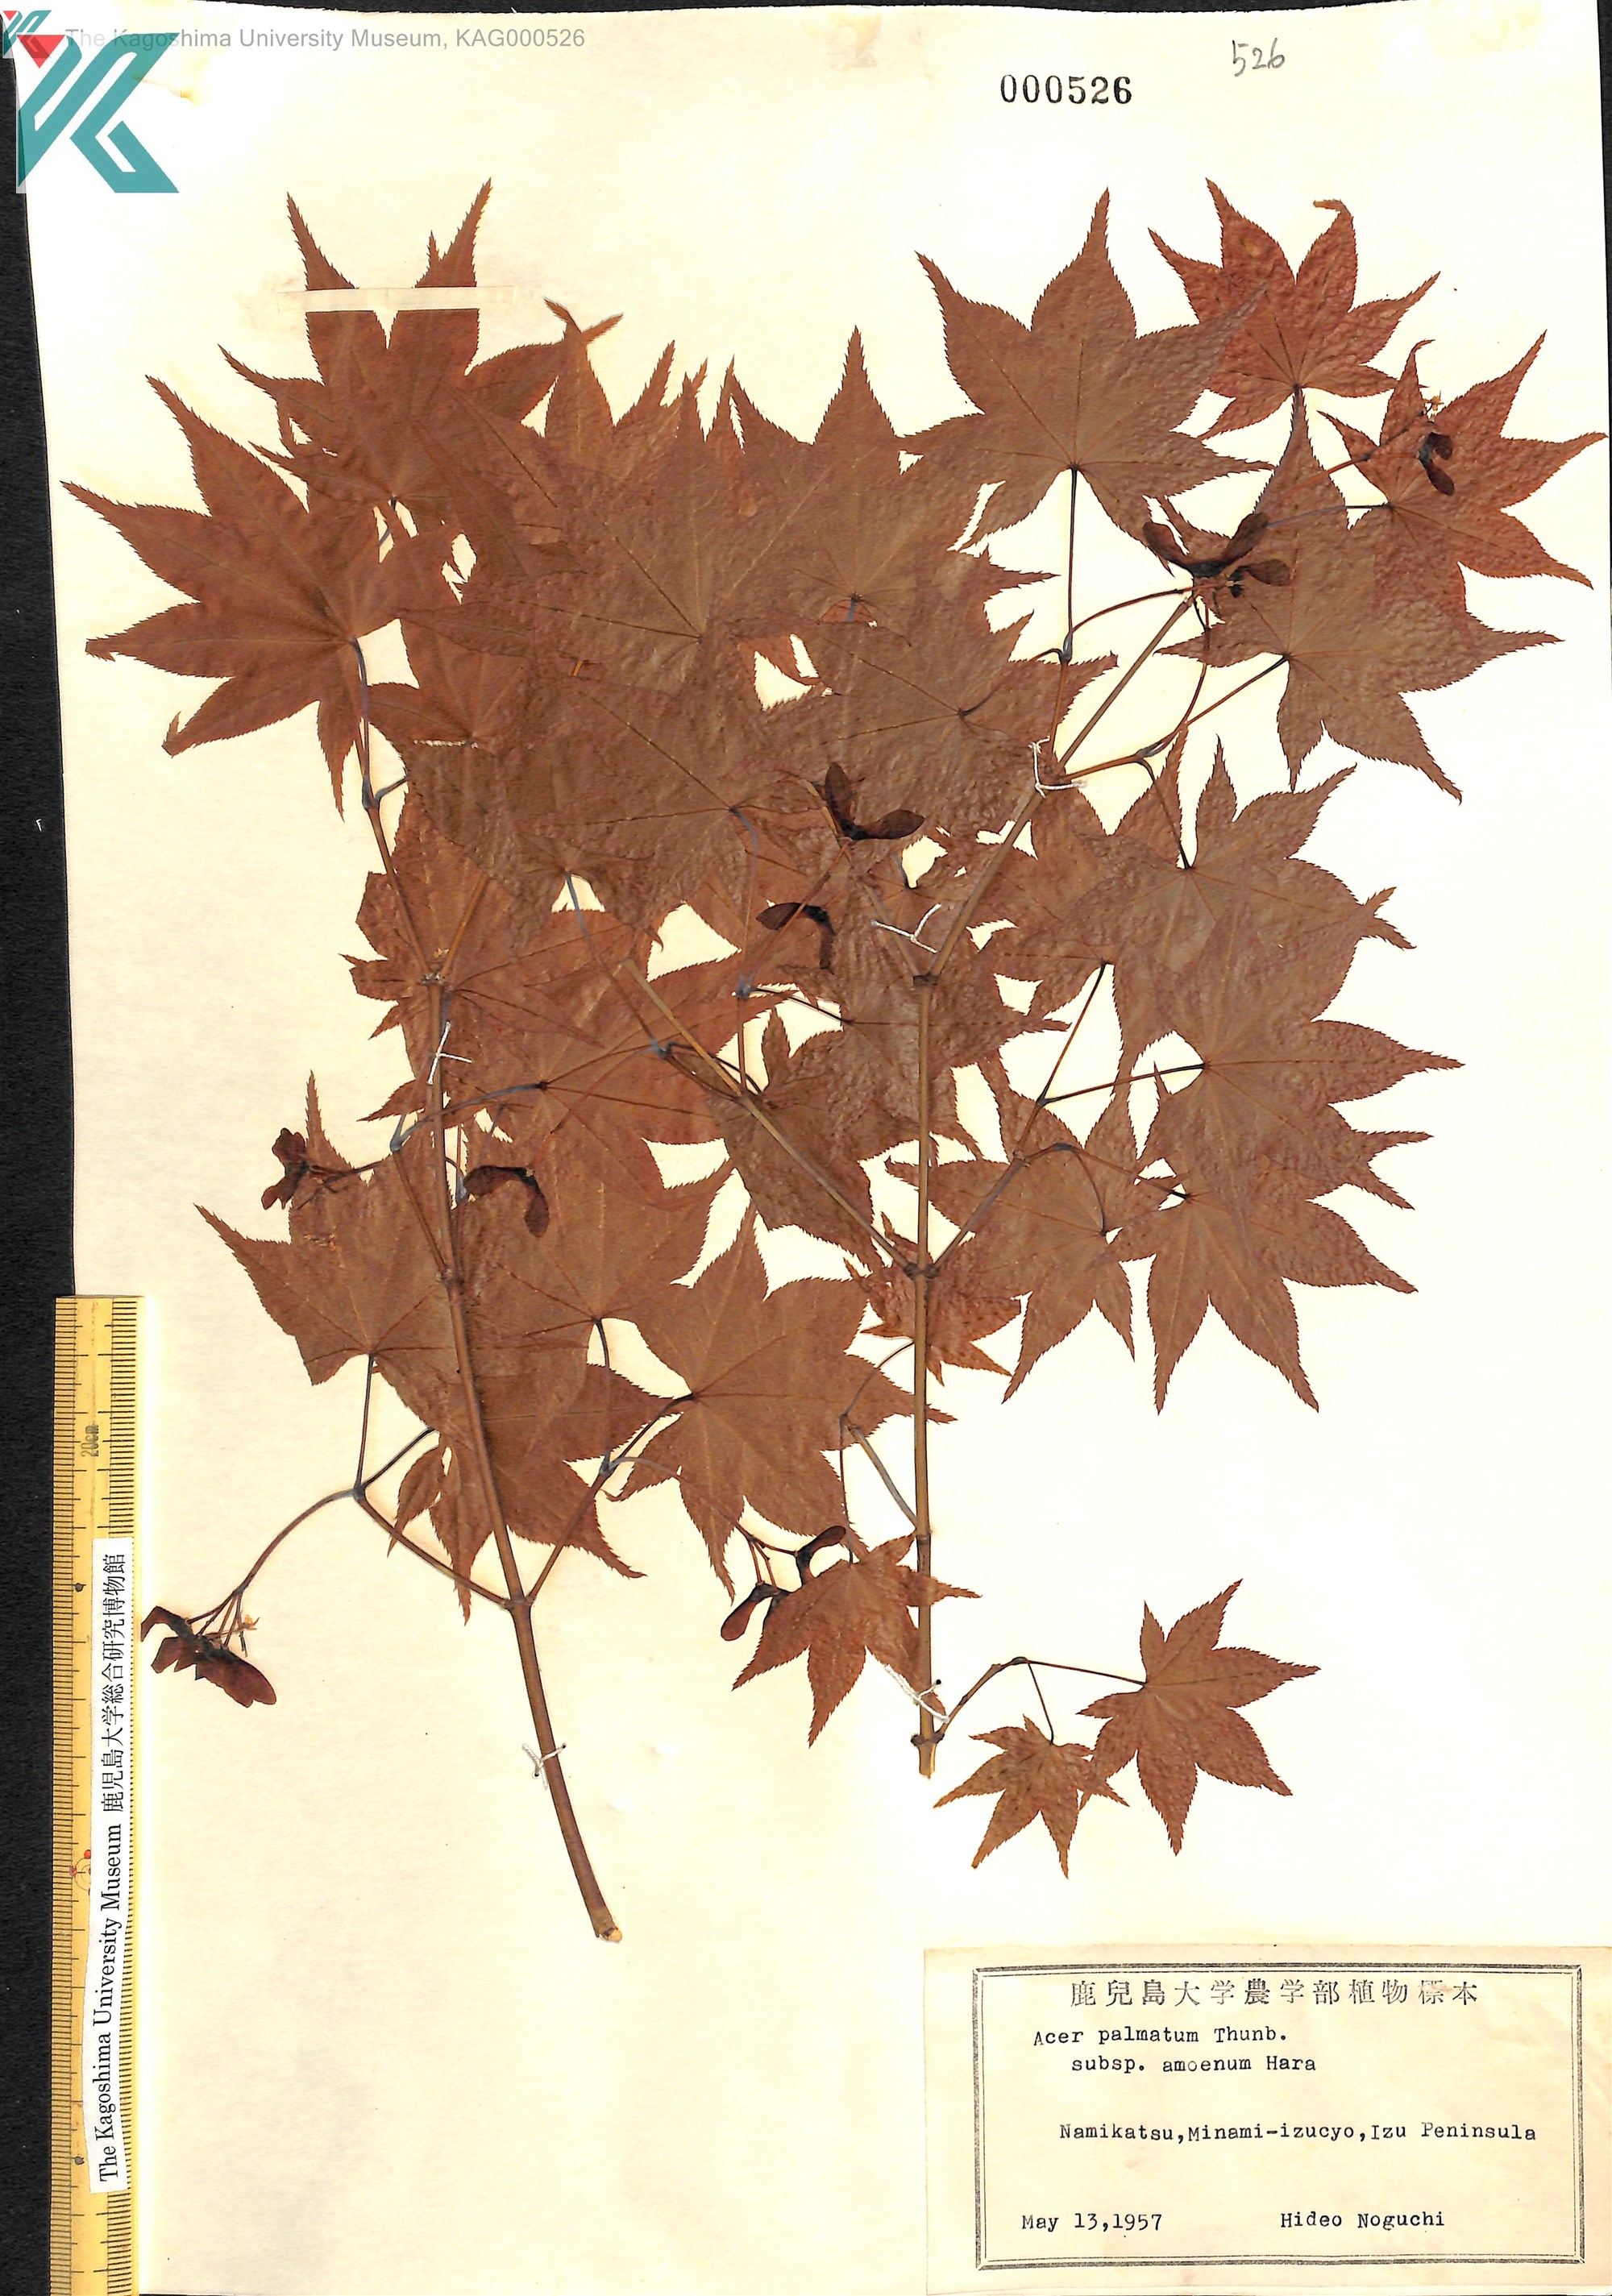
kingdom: Plantae
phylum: Tracheophyta
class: Magnoliopsida
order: Sapindales
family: Sapindaceae
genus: Acer
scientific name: Acer palmatum
